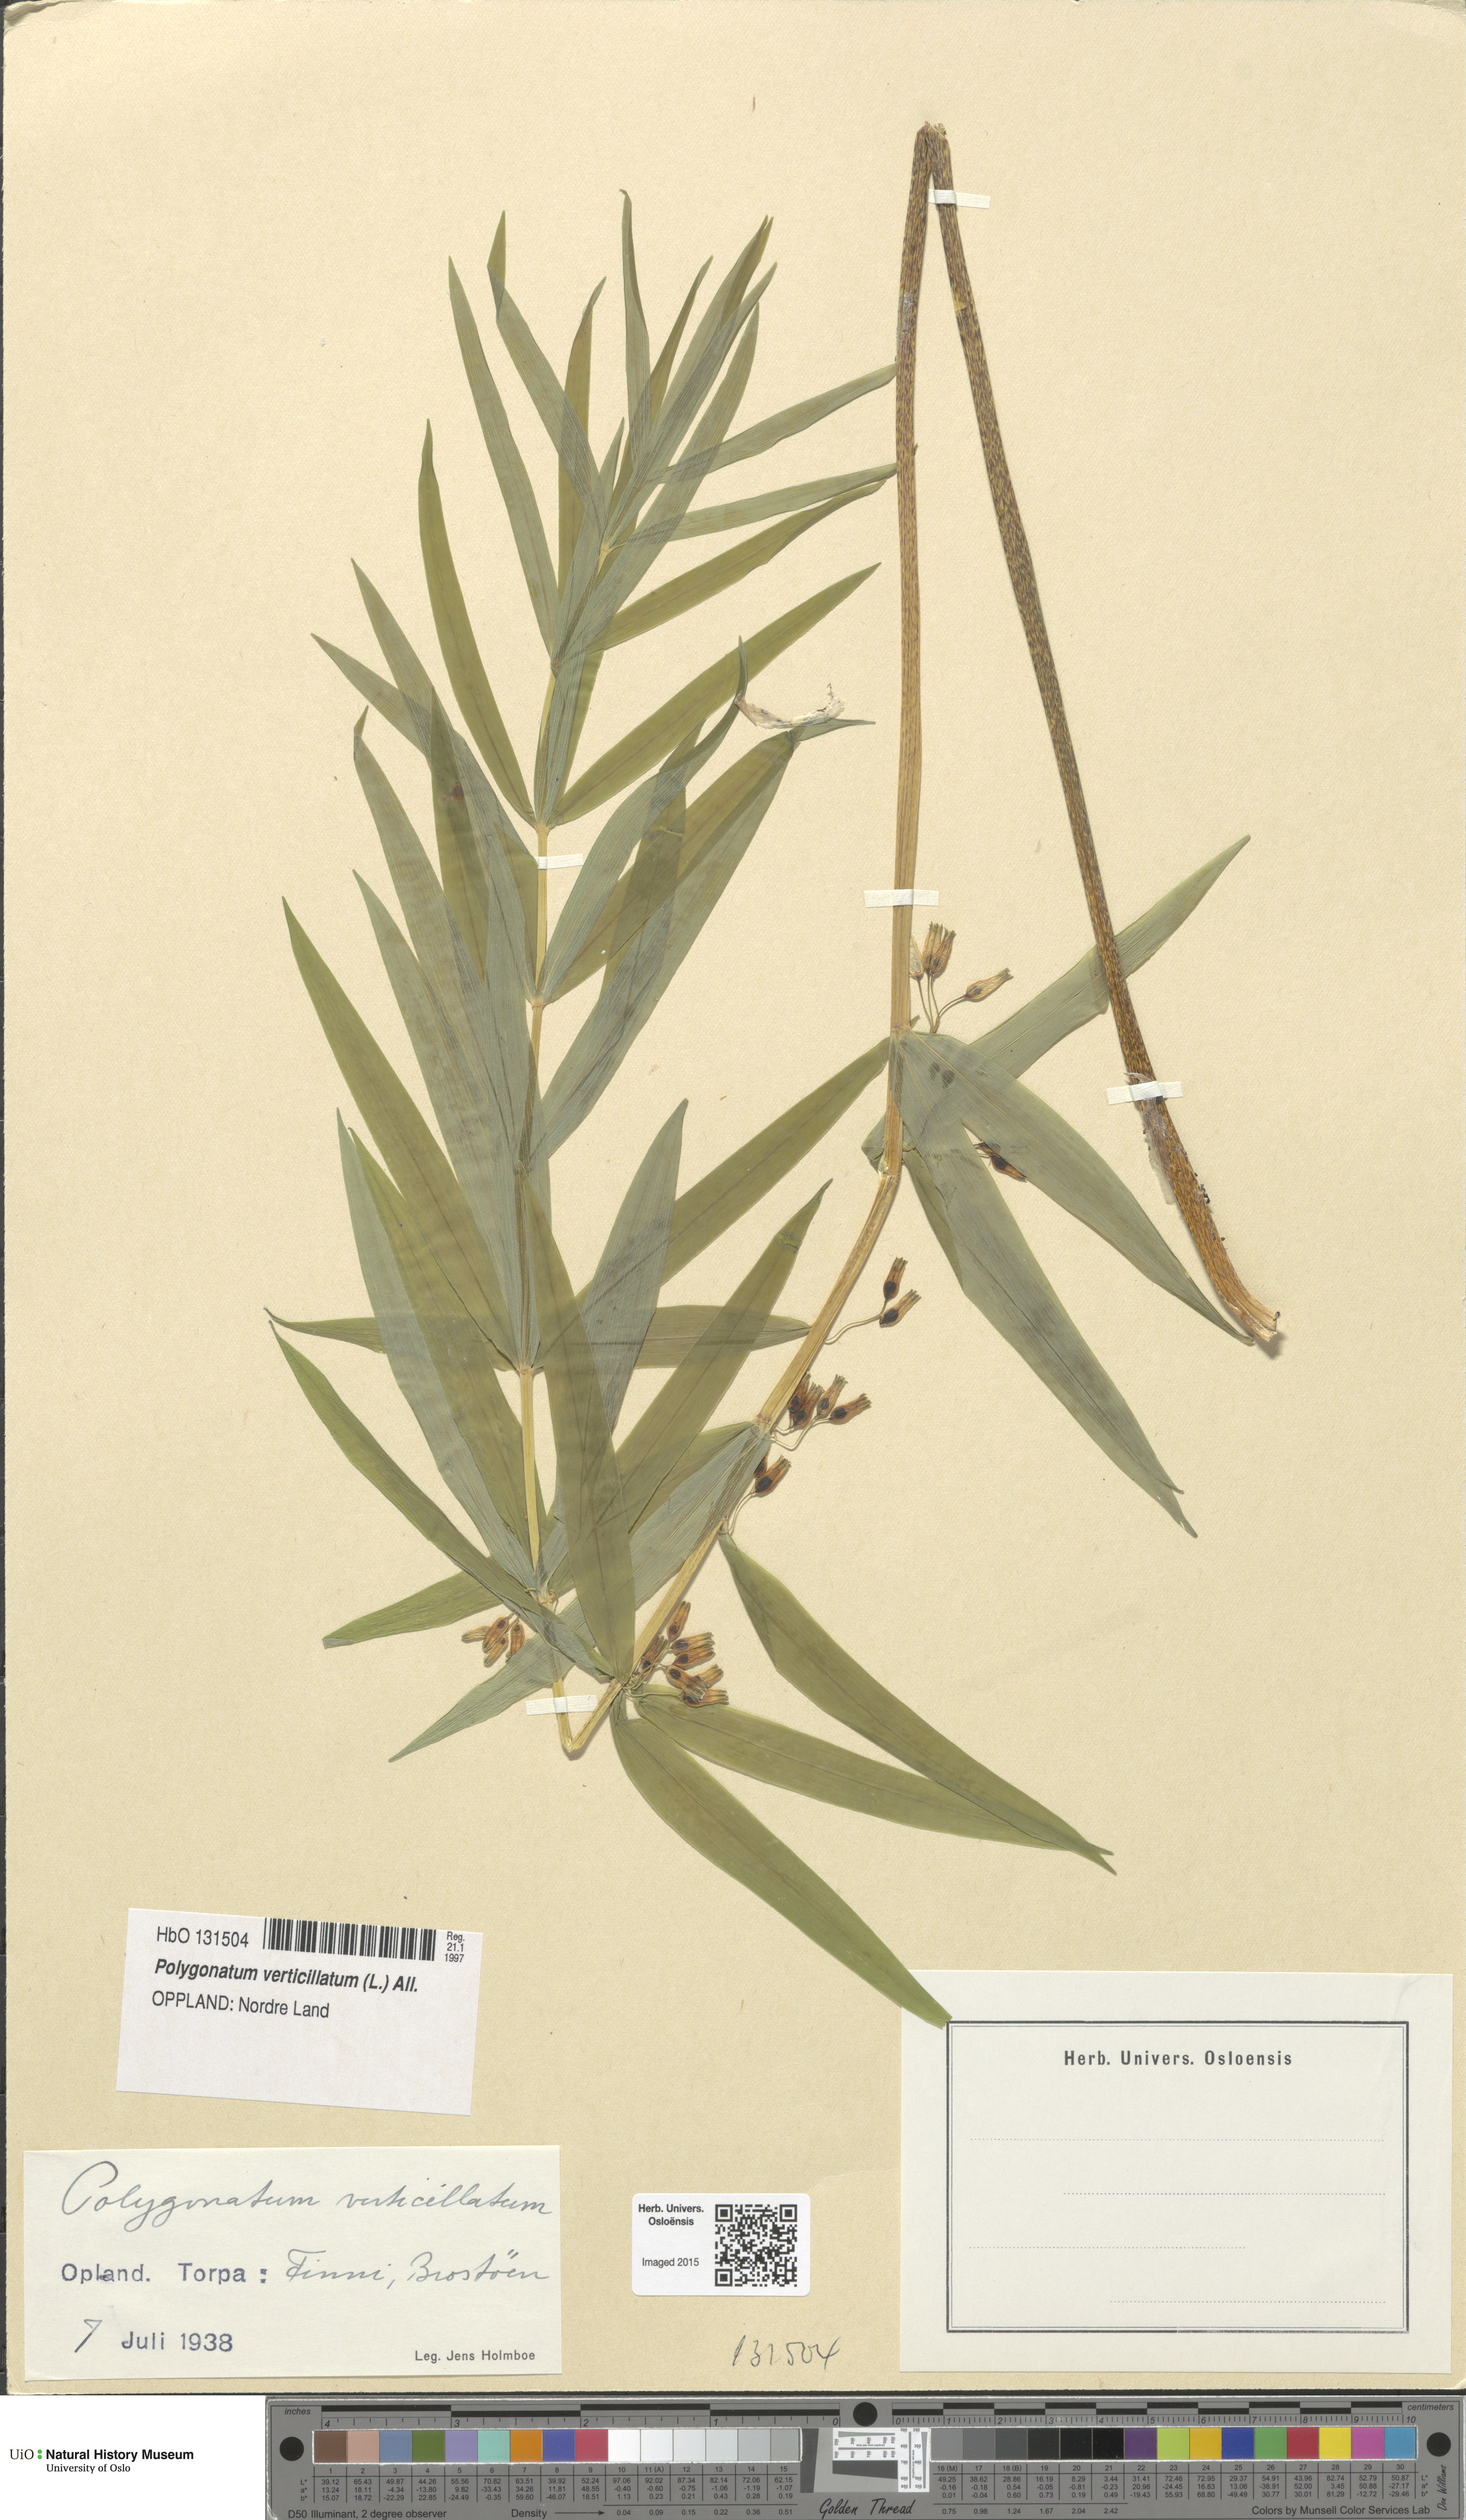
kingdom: Plantae
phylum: Tracheophyta
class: Liliopsida
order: Asparagales
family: Asparagaceae
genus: Polygonatum
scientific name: Polygonatum verticillatum
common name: Whorled solomon's-seal
